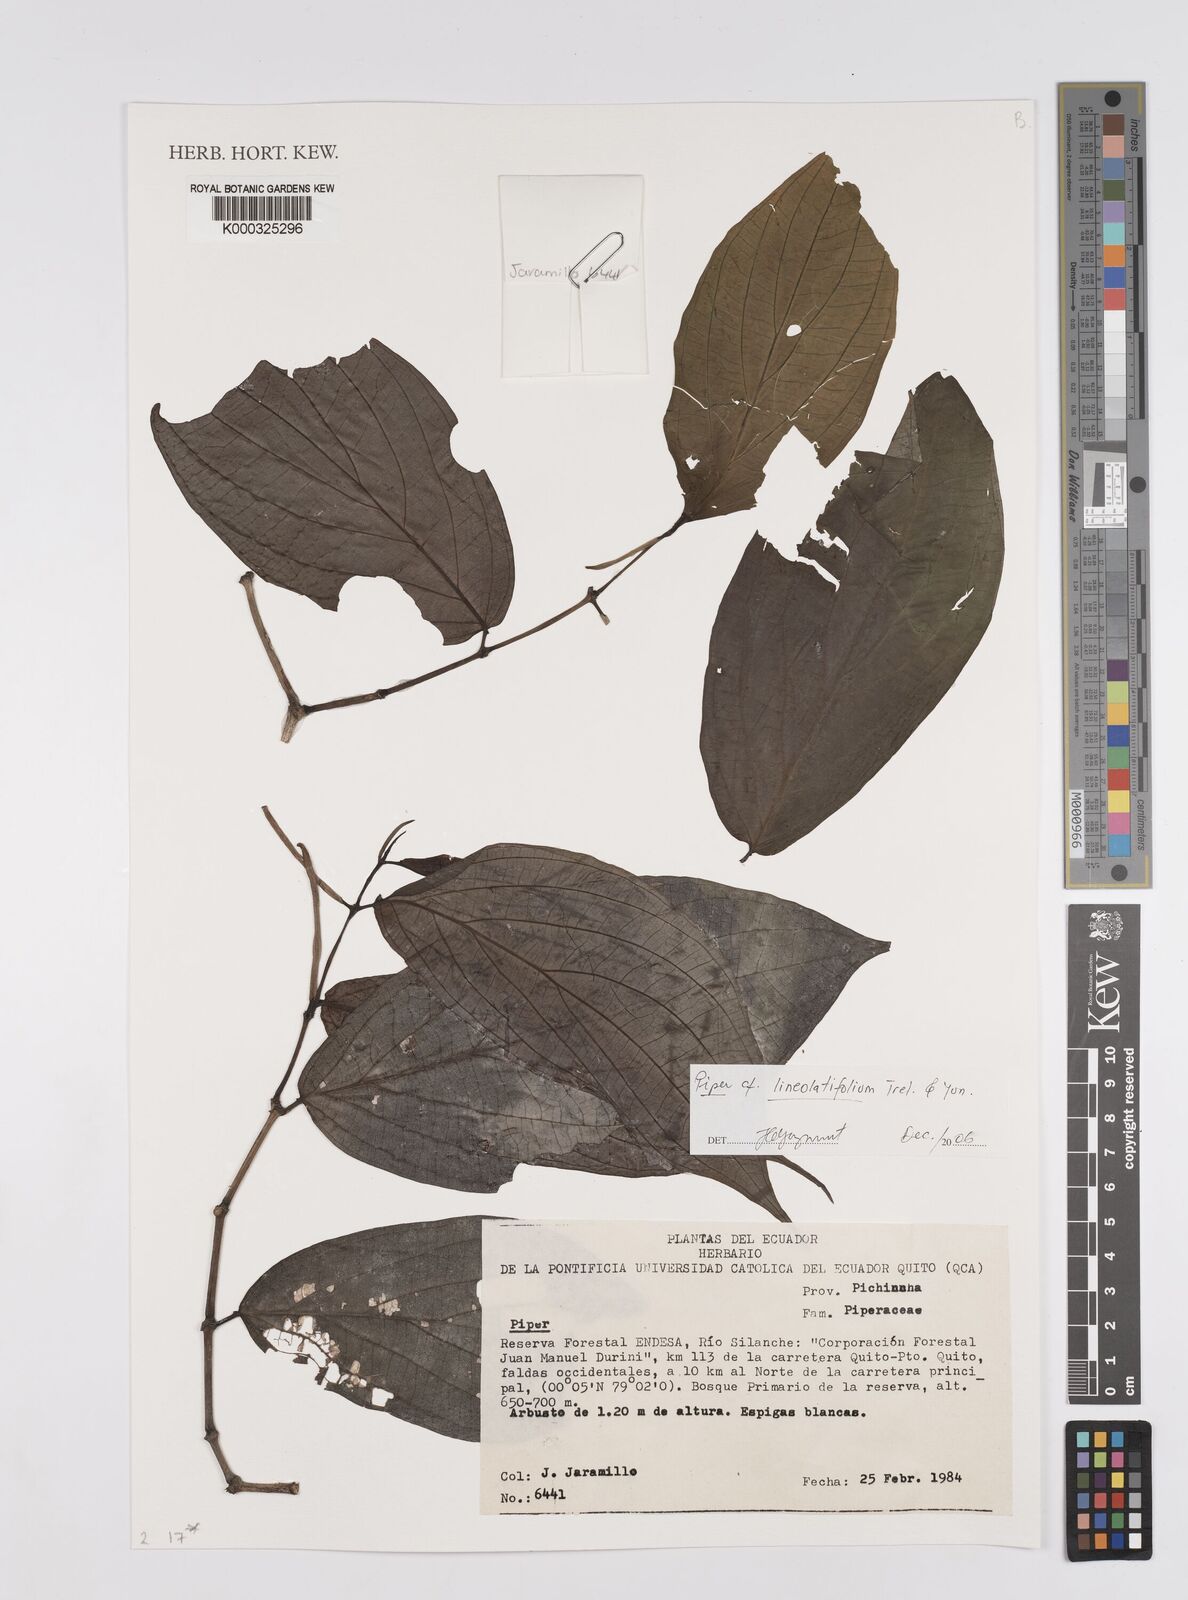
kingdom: Plantae
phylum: Tracheophyta
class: Magnoliopsida
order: Piperales
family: Piperaceae
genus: Piper
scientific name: Piper lineolatifolium
